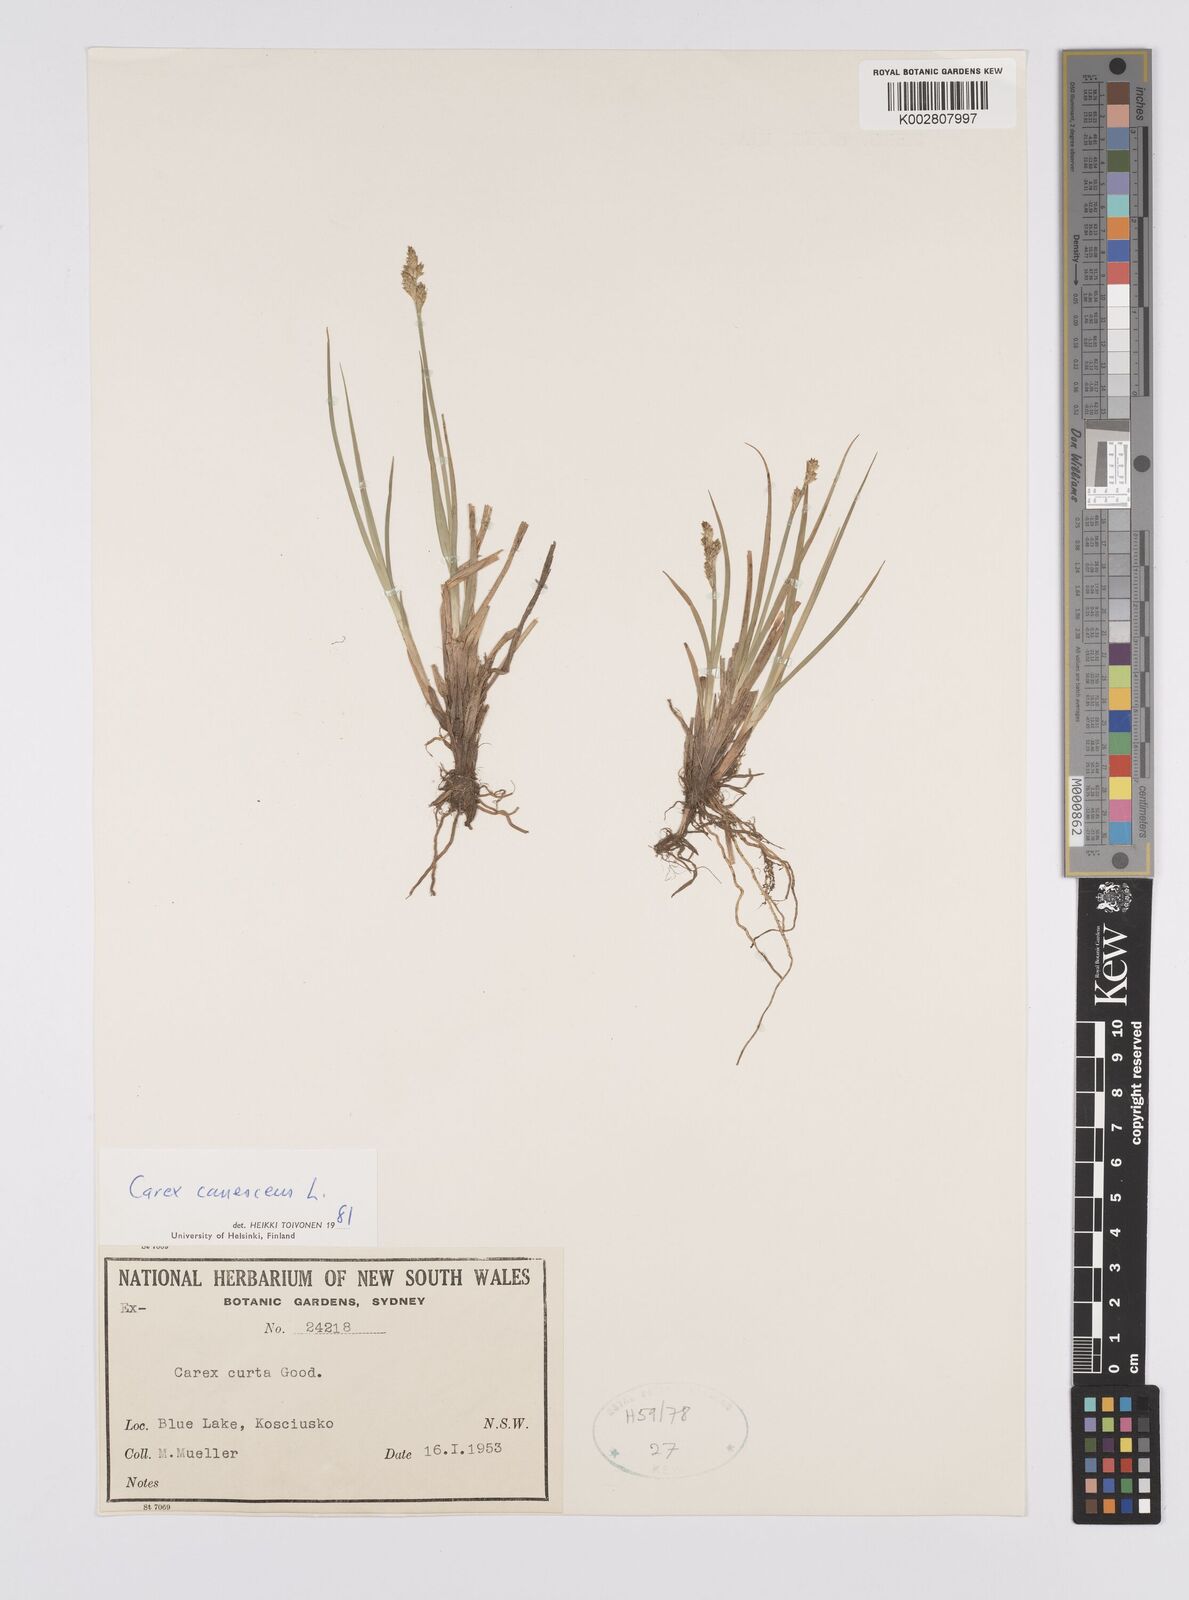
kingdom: Plantae
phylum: Tracheophyta
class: Liliopsida
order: Poales
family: Cyperaceae
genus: Carex
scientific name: Carex curta
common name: White sedge
